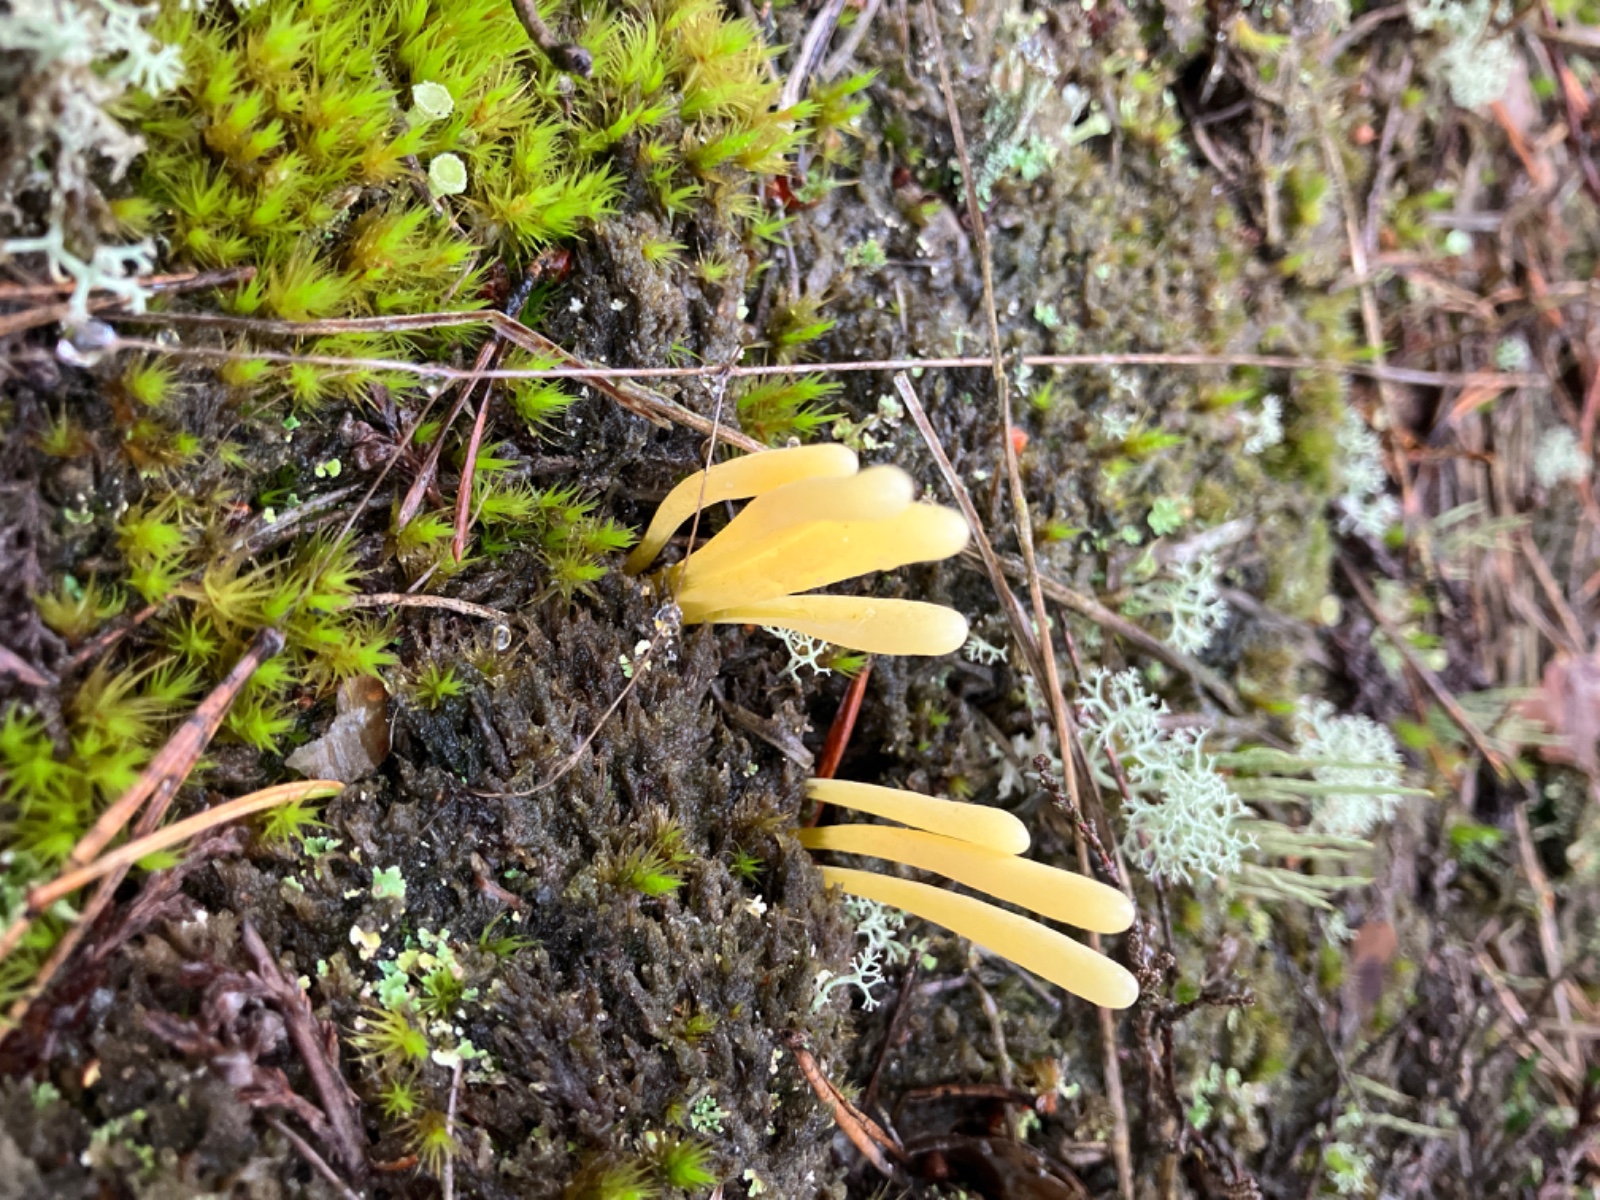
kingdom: Fungi
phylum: Basidiomycota
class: Agaricomycetes
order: Agaricales
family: Clavariaceae
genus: Clavaria
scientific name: Clavaria argillacea
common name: lerfarvet køllesvamp
